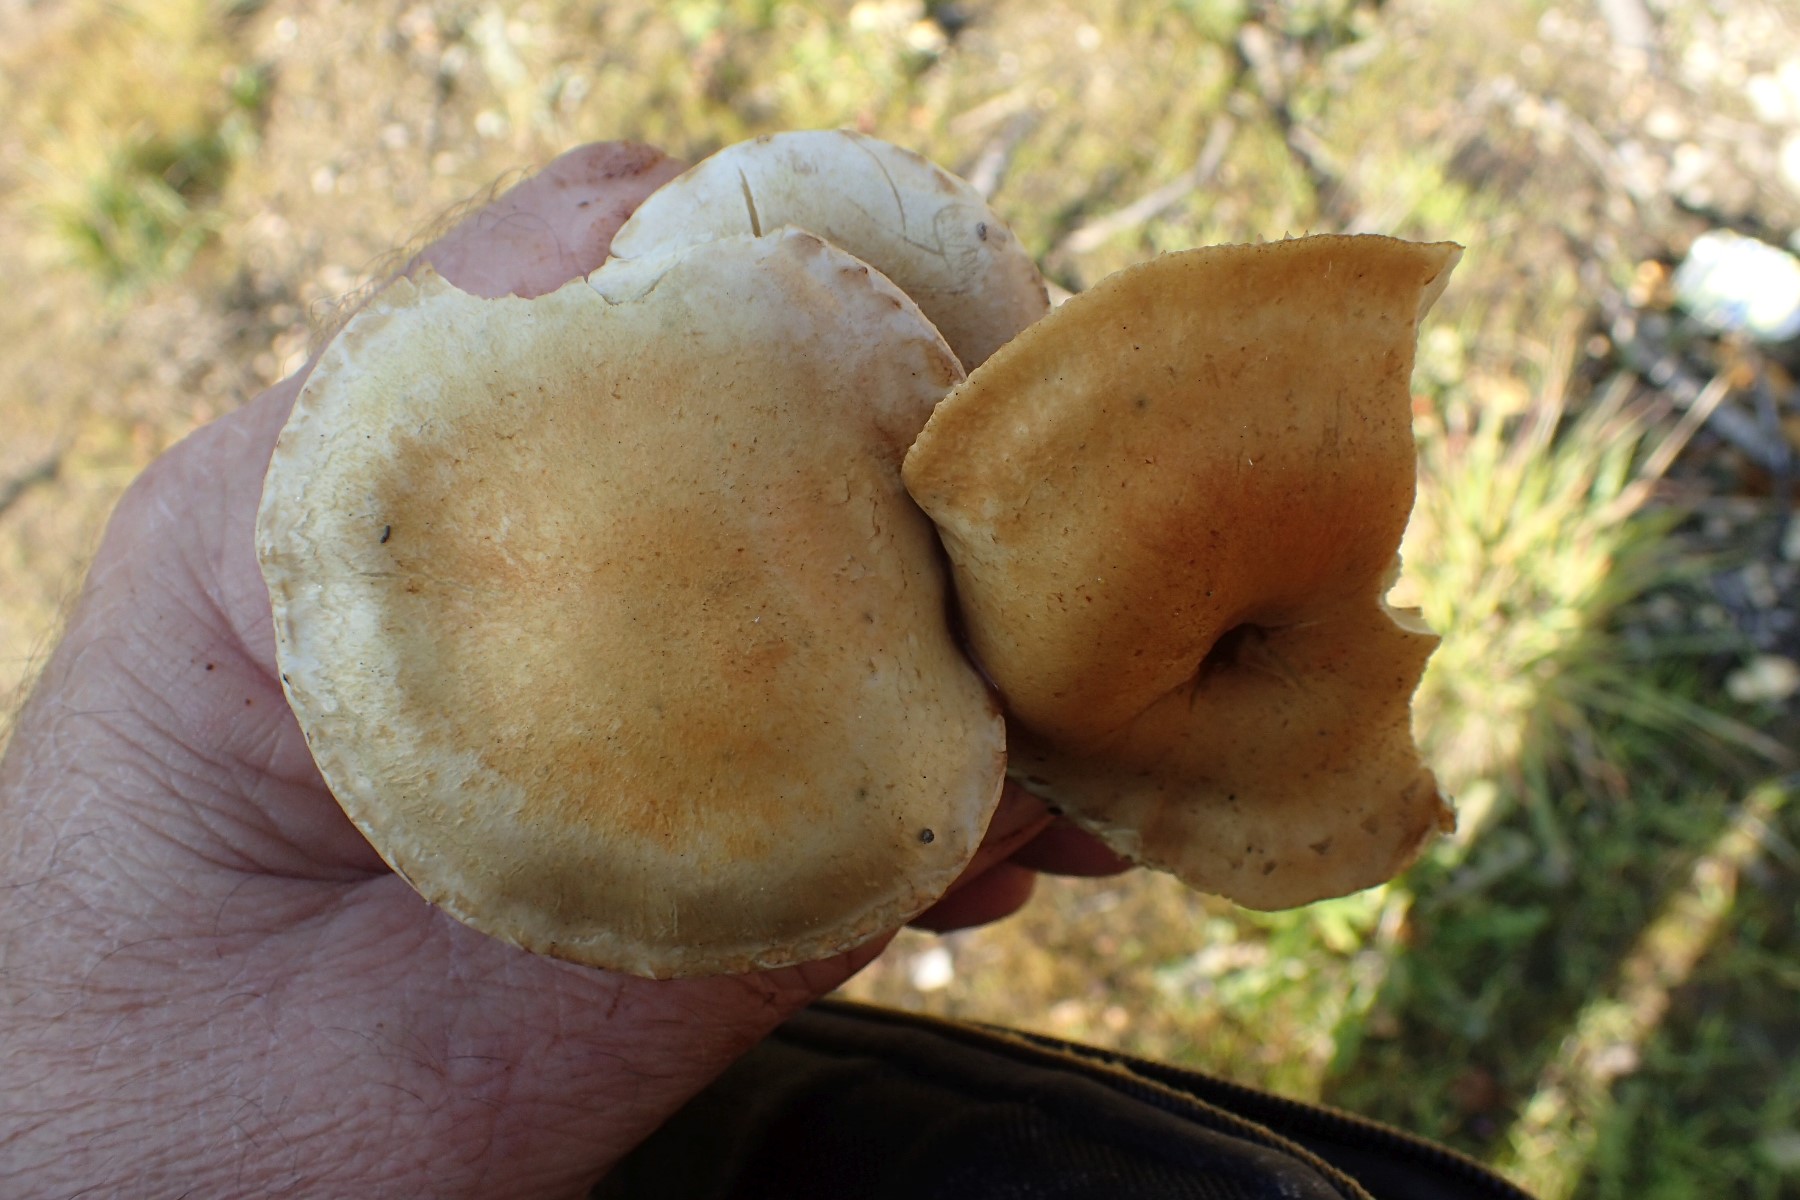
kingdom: Fungi
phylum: Basidiomycota
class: Agaricomycetes
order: Agaricales
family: Strophariaceae
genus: Pholiota
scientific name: Pholiota gummosa
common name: grøngul skælhat
